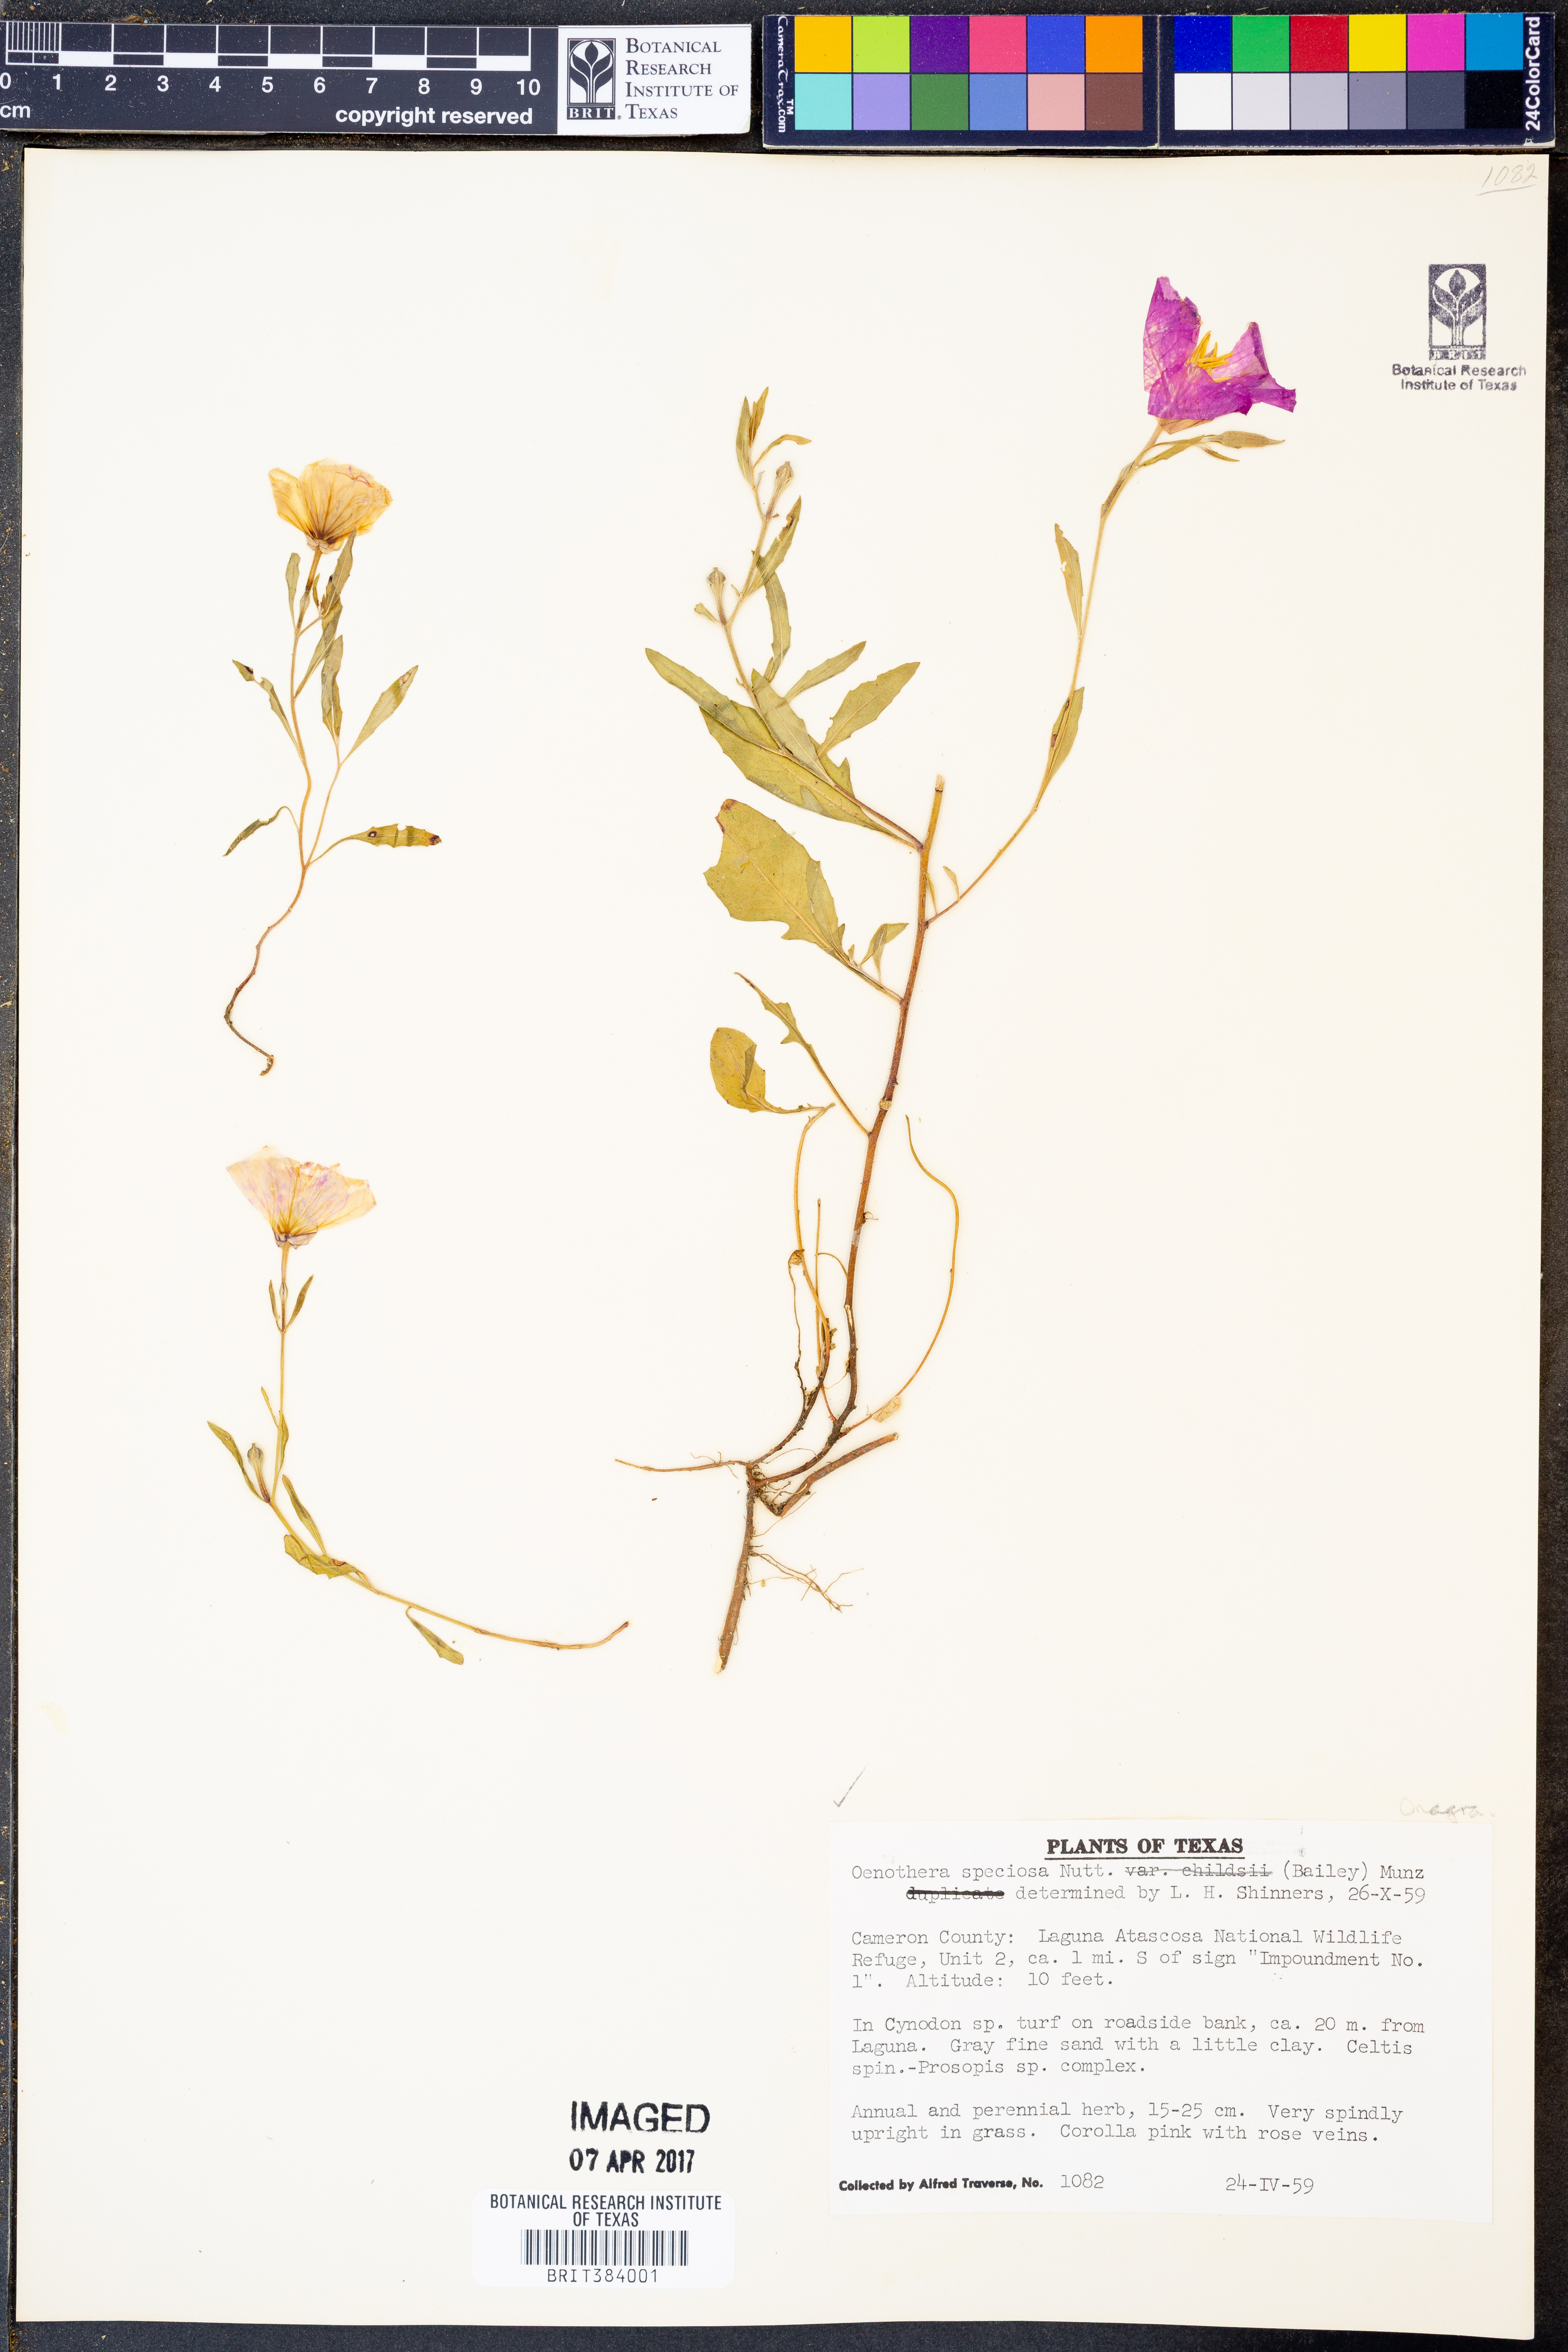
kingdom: Plantae
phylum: Tracheophyta
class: Magnoliopsida
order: Myrtales
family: Onagraceae
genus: Oenothera
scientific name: Oenothera speciosa
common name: White evening-primrose
